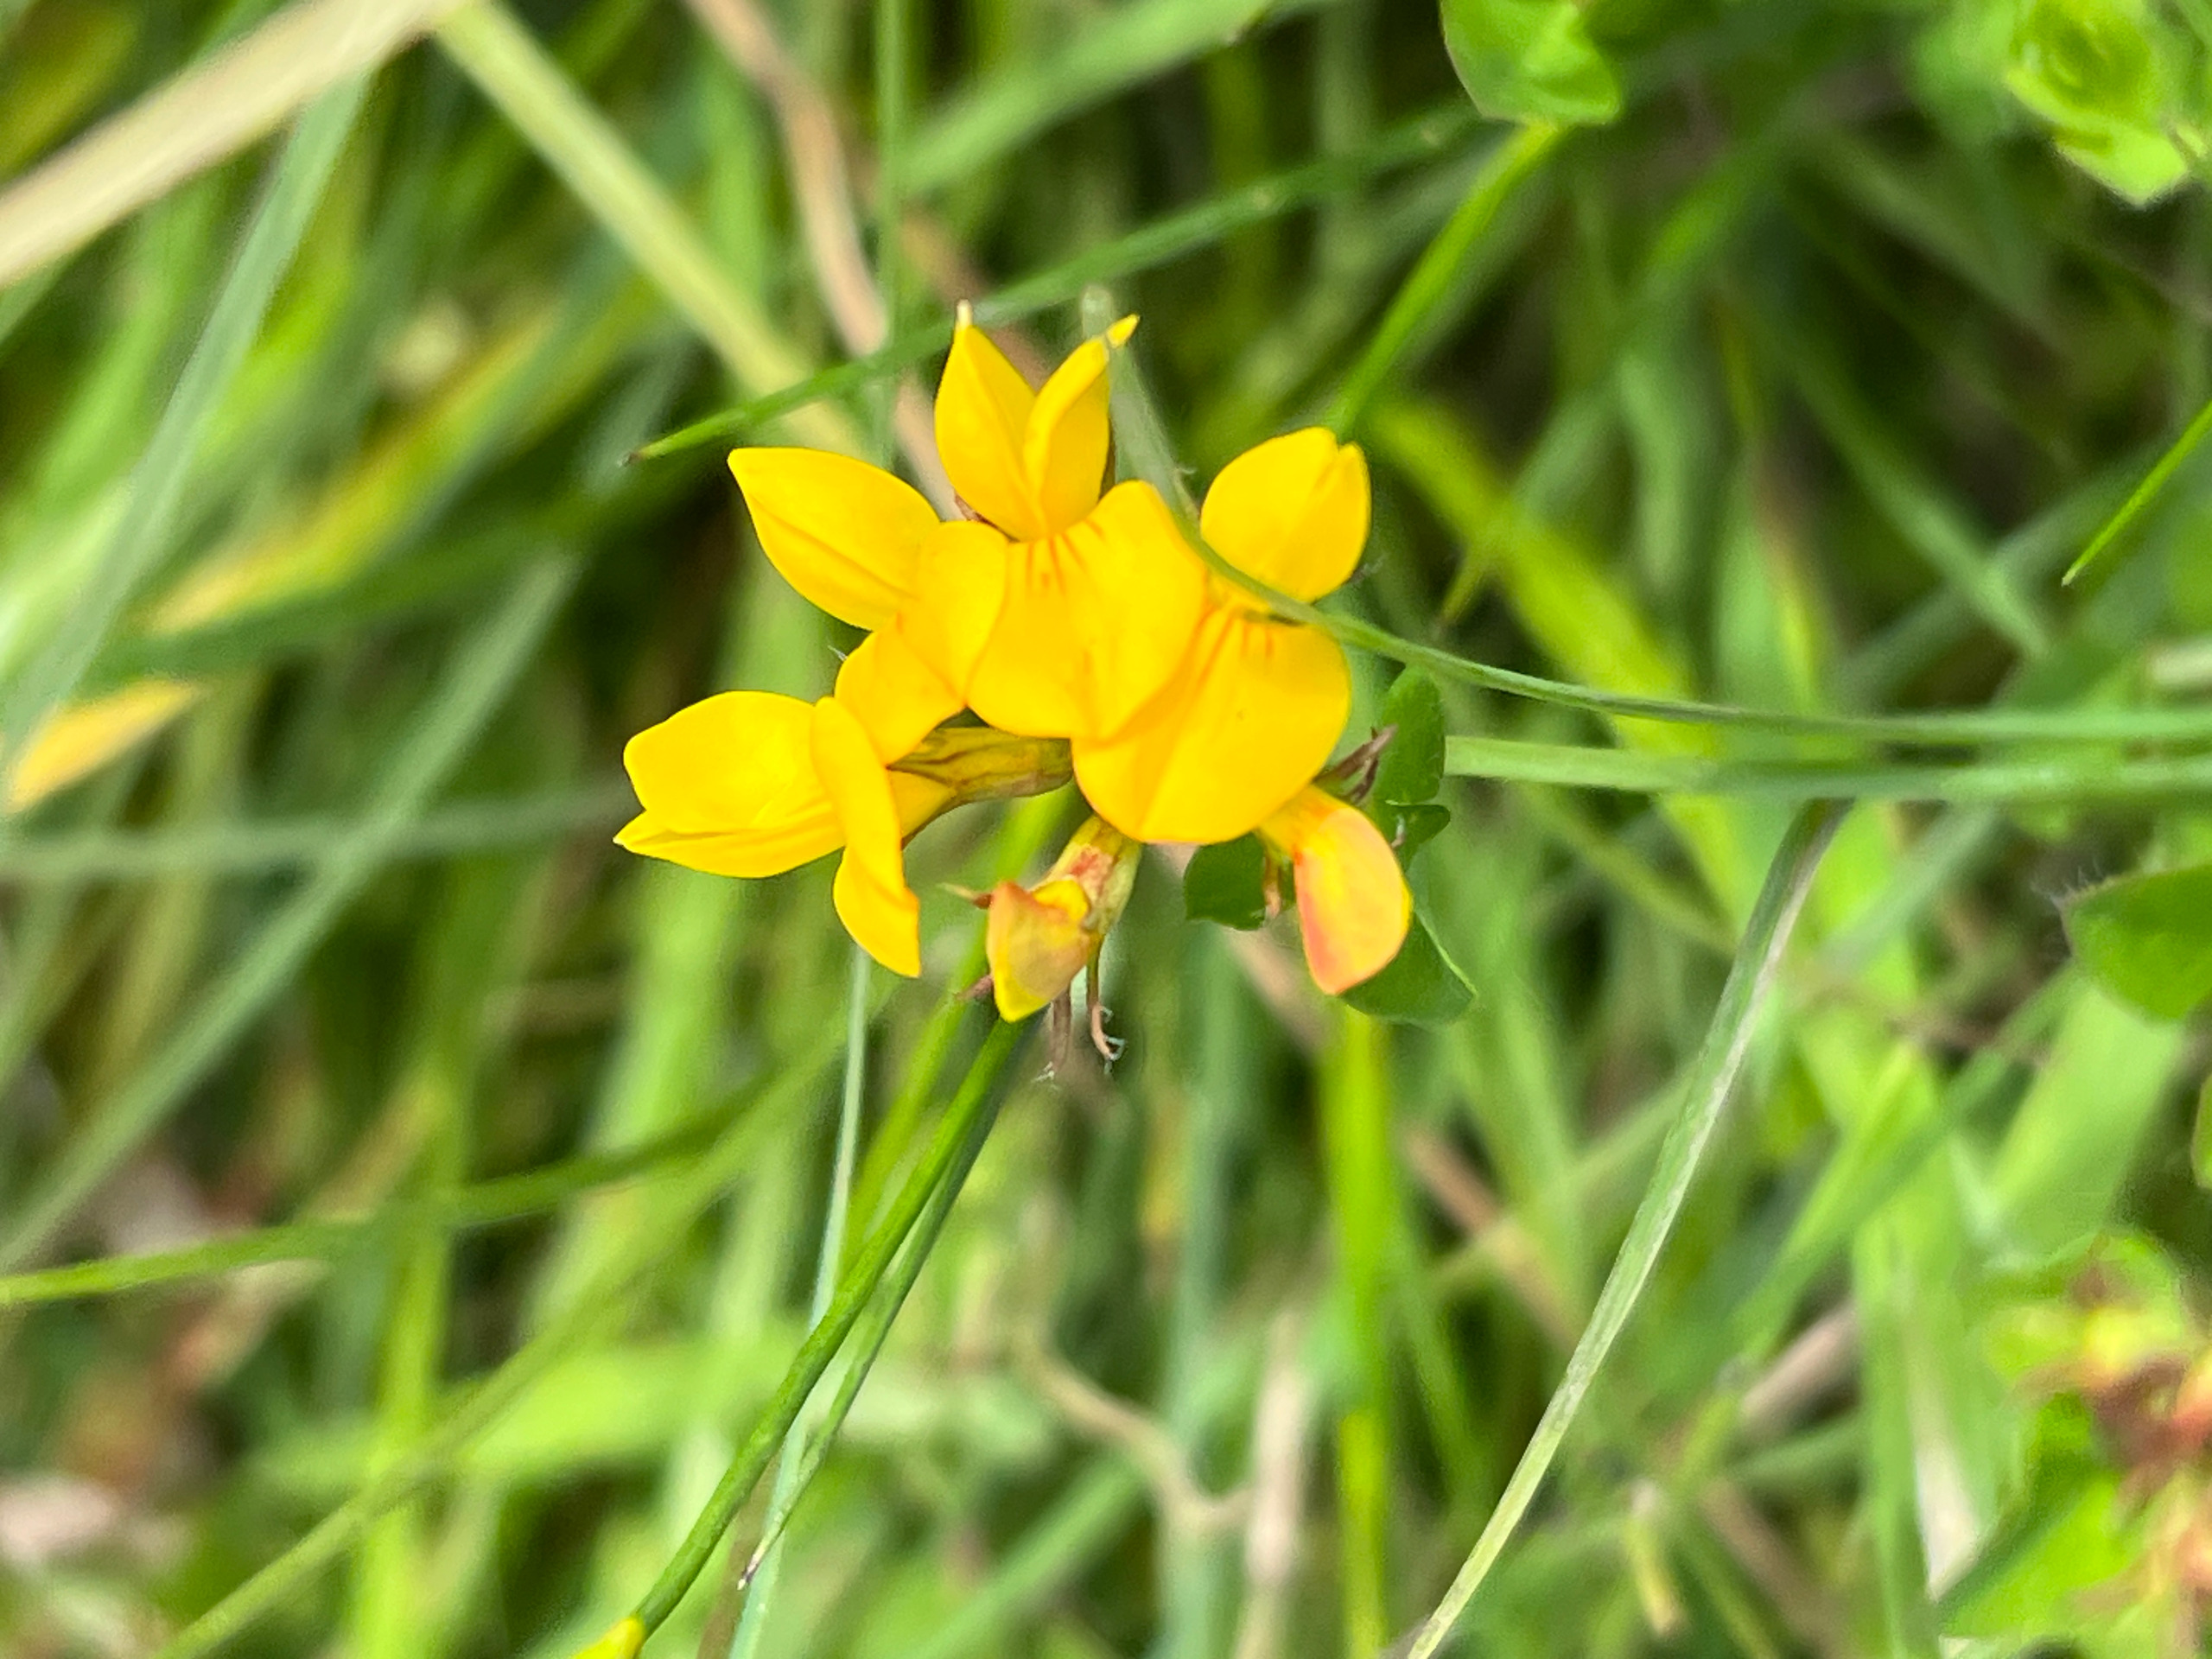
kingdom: Plantae
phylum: Tracheophyta
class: Magnoliopsida
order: Fabales
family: Fabaceae
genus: Lotus
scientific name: Lotus pedunculatus
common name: Sump-kællingetand
